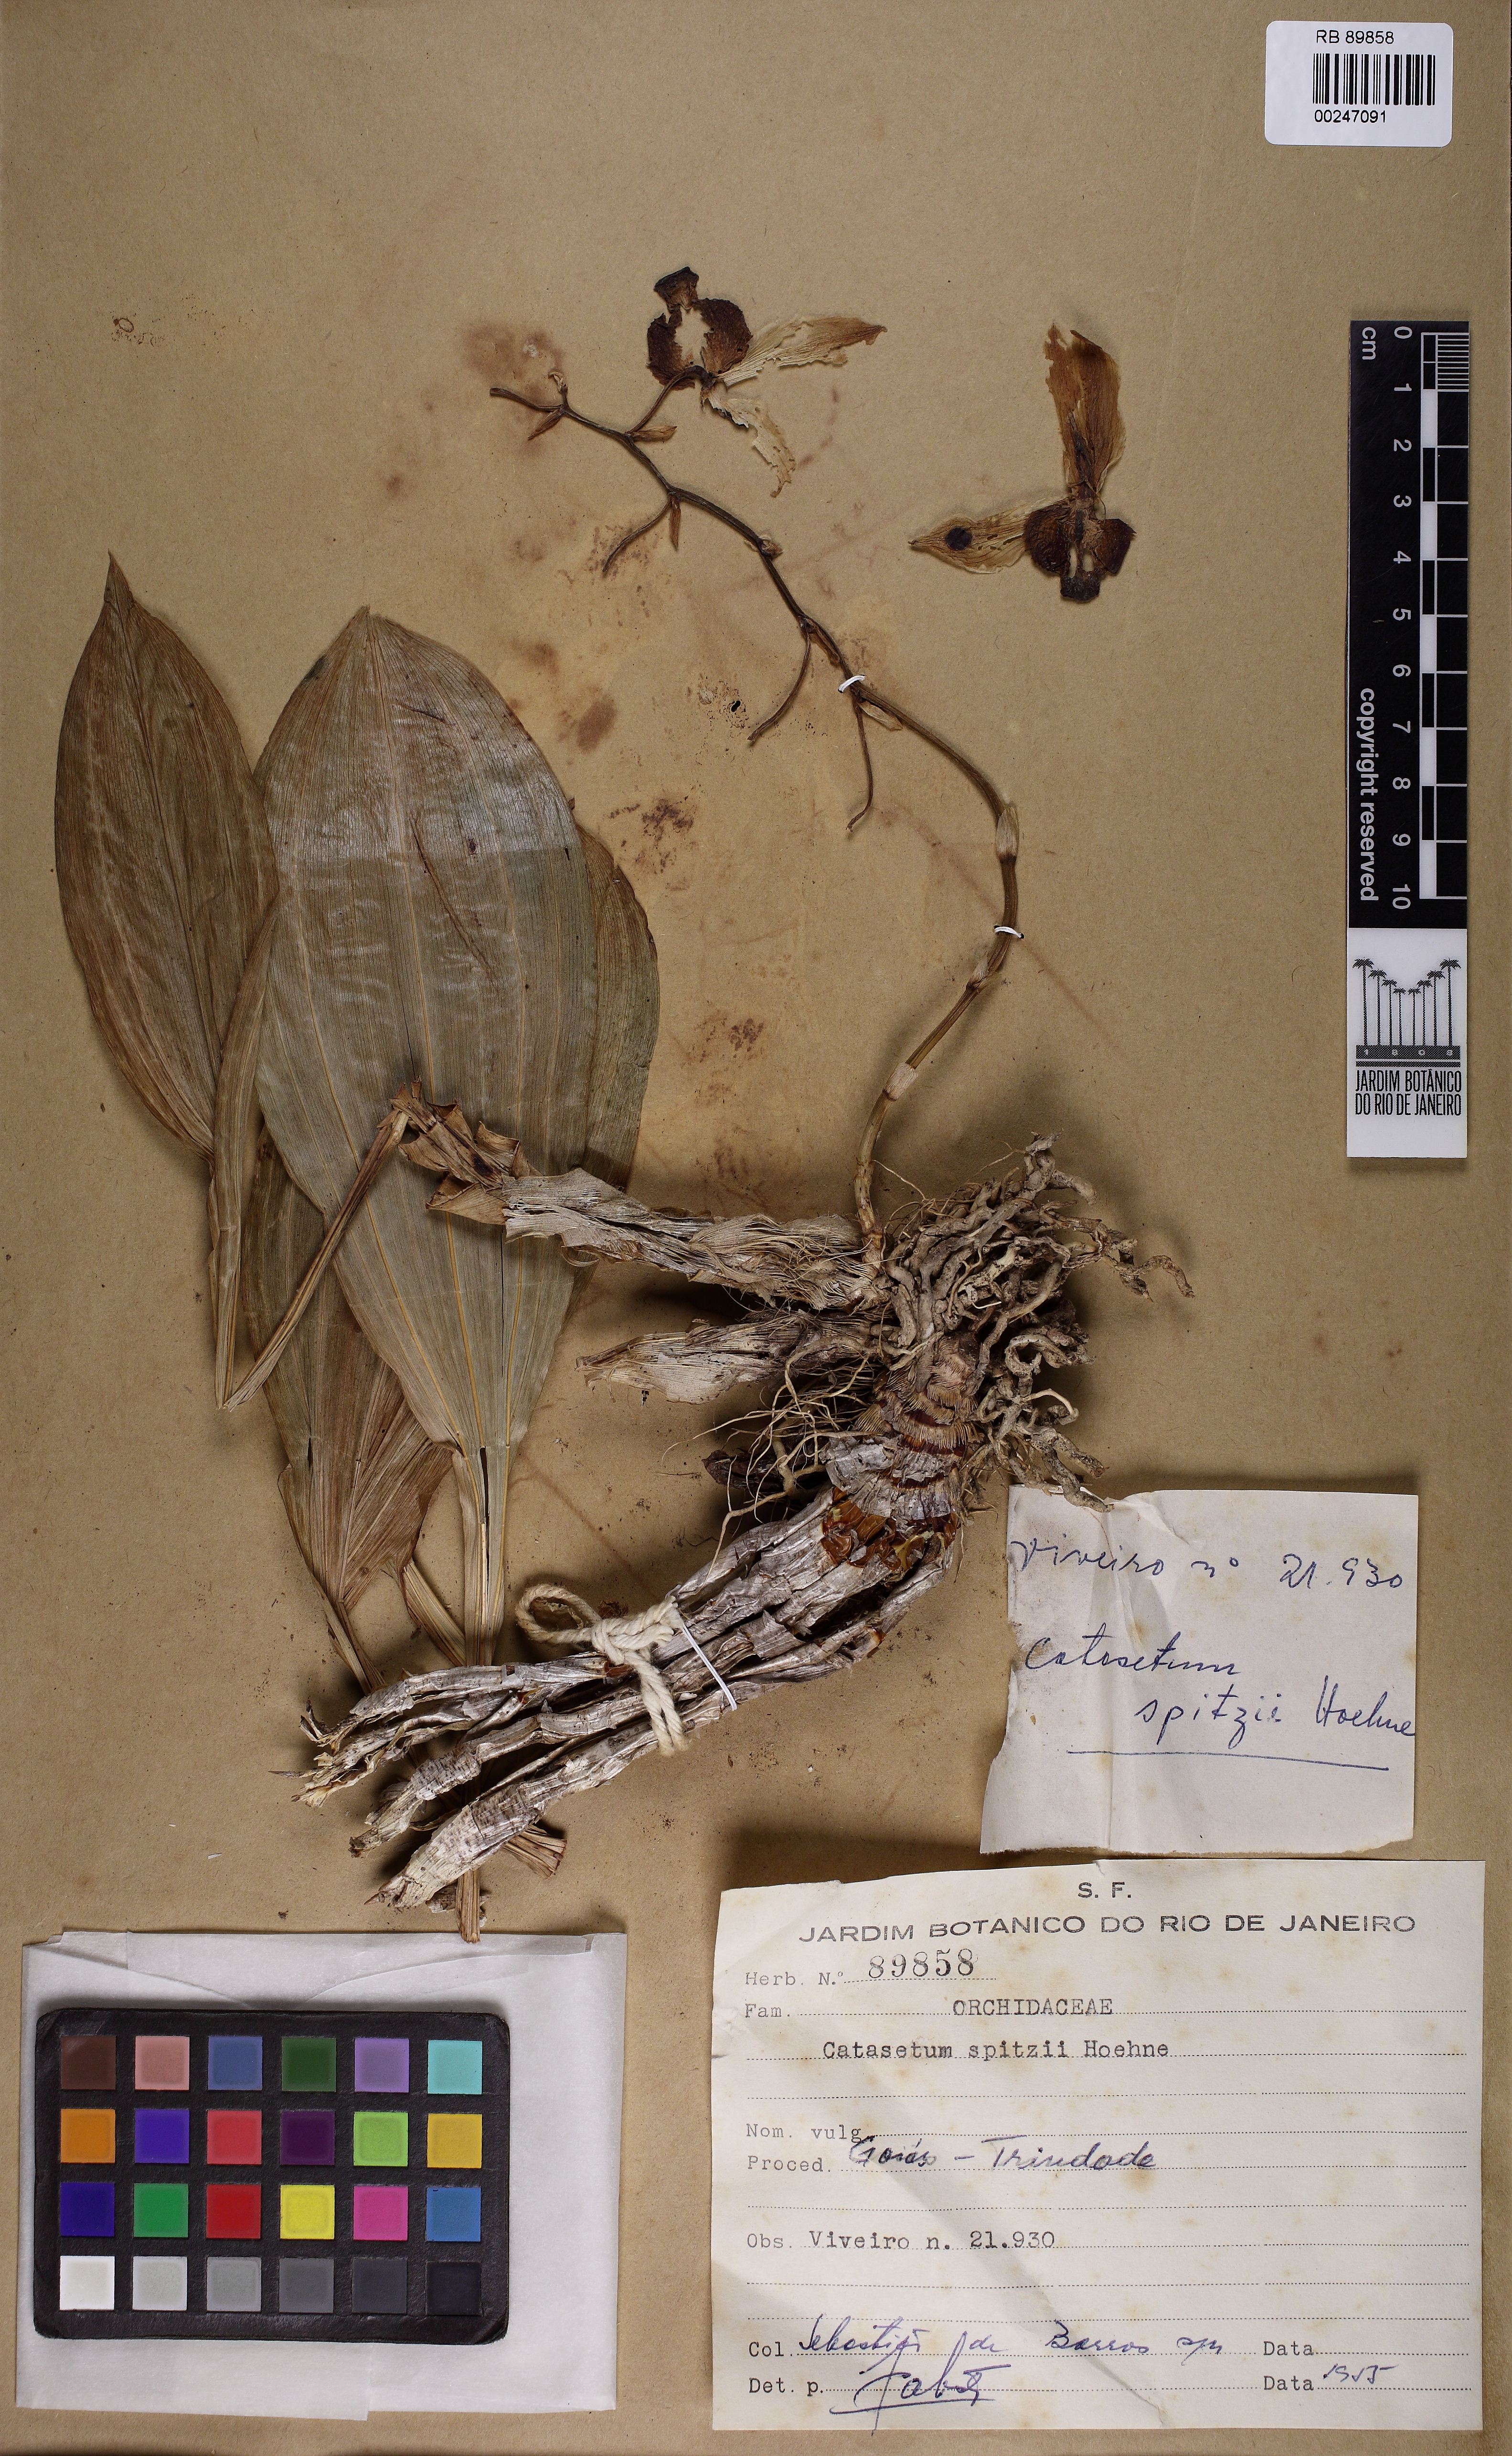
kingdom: Plantae
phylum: Tracheophyta
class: Liliopsida
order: Asparagales
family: Orchidaceae
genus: Catasetum
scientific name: Catasetum spitzii
